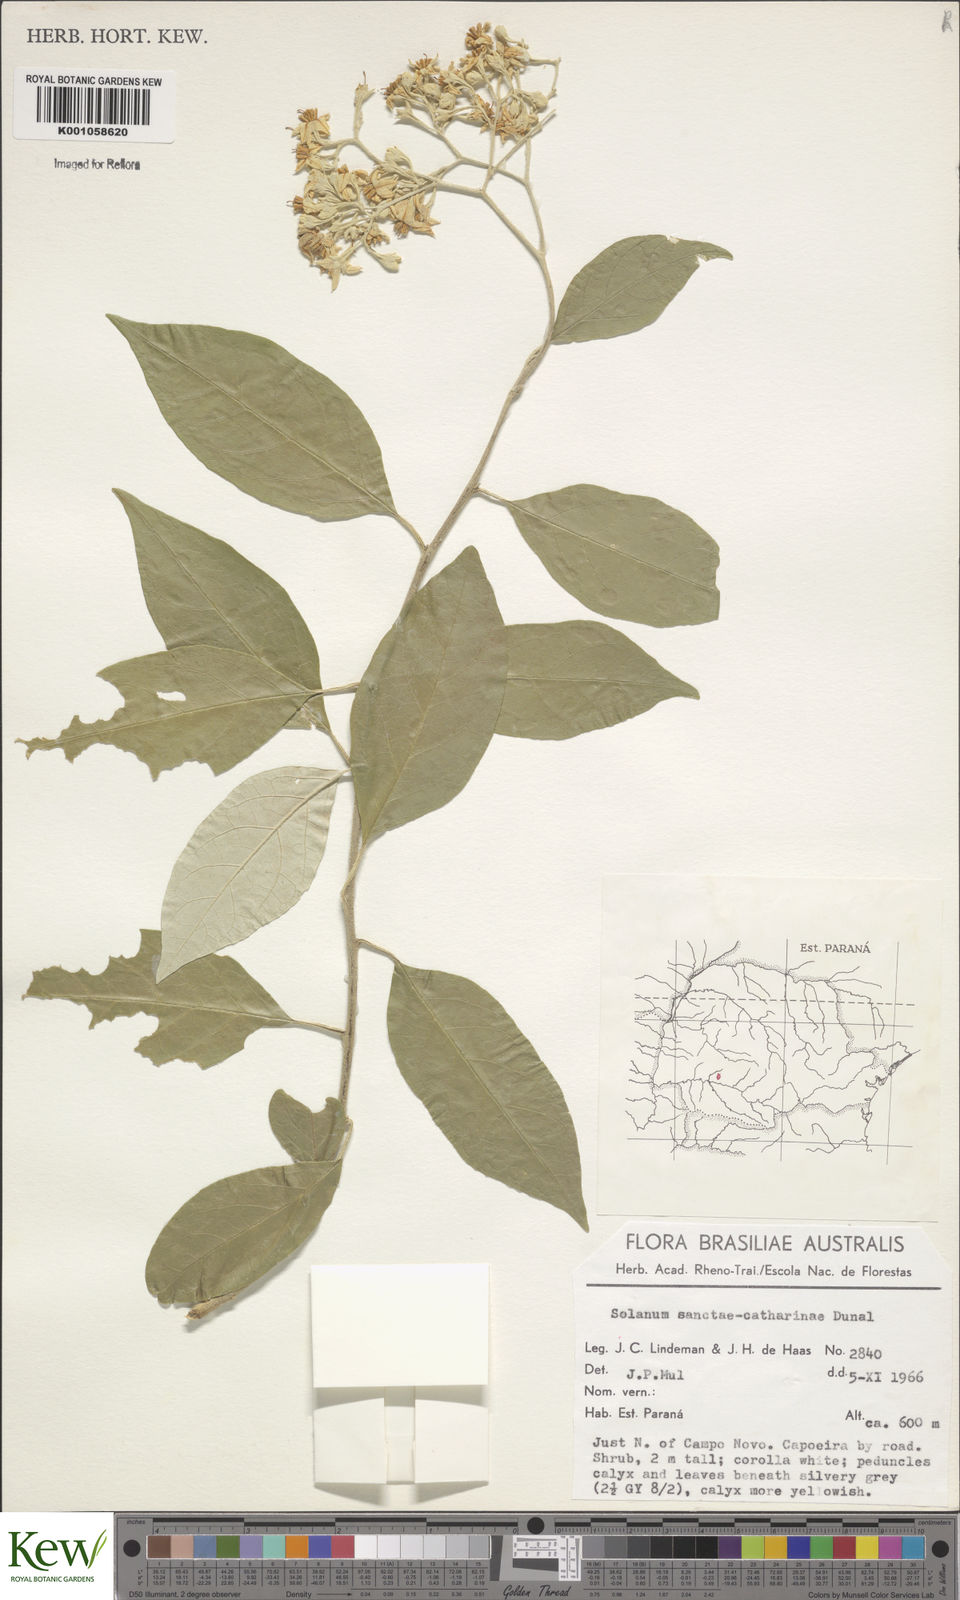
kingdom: Plantae
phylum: Tracheophyta
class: Magnoliopsida
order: Solanales
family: Solanaceae
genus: Solanum
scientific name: Solanum sanctae-catharinae
